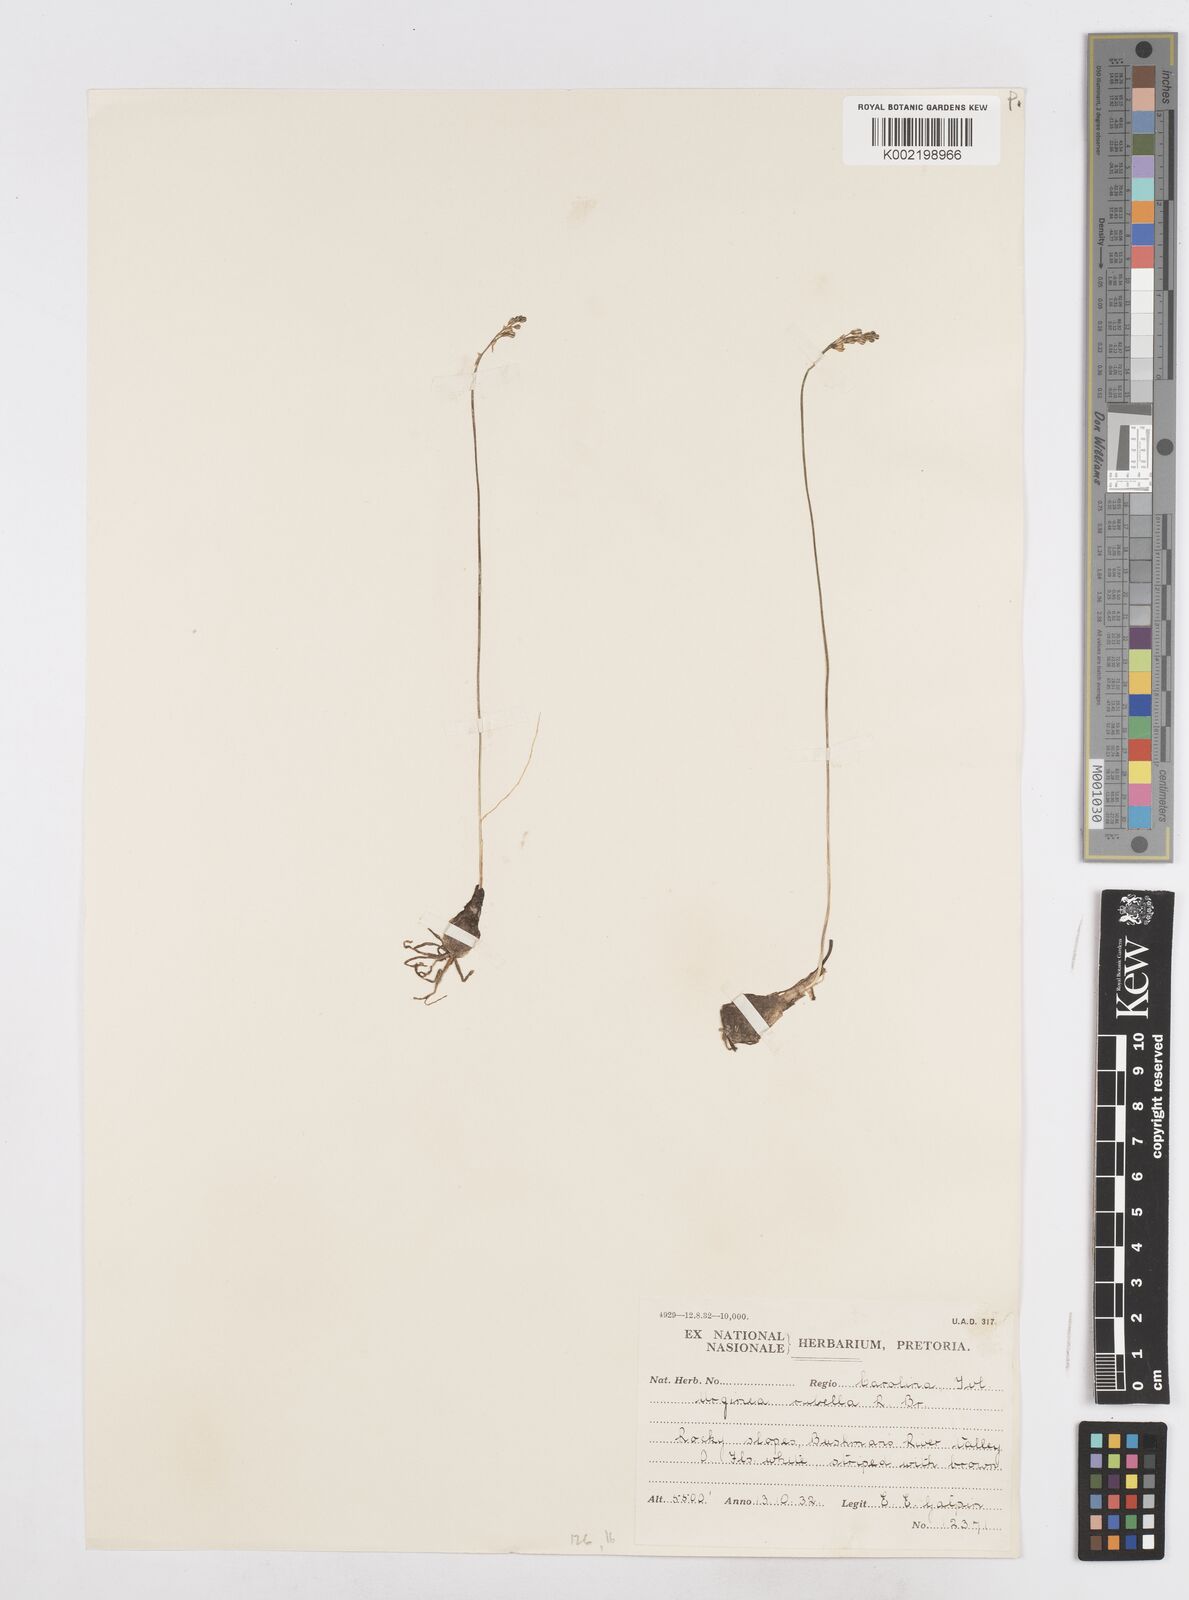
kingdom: Plantae
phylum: Tracheophyta
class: Liliopsida
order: Asparagales
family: Asparagaceae
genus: Drimia
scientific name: Drimia
